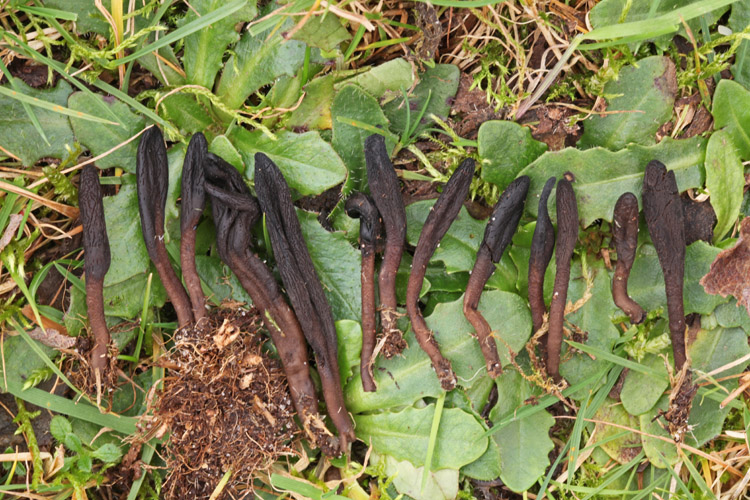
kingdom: Fungi
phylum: Ascomycota
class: Geoglossomycetes
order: Geoglossales
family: Geoglossaceae
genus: Hemileucoglossum
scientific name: Hemileucoglossum elongatum
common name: småsporet jordtunge
